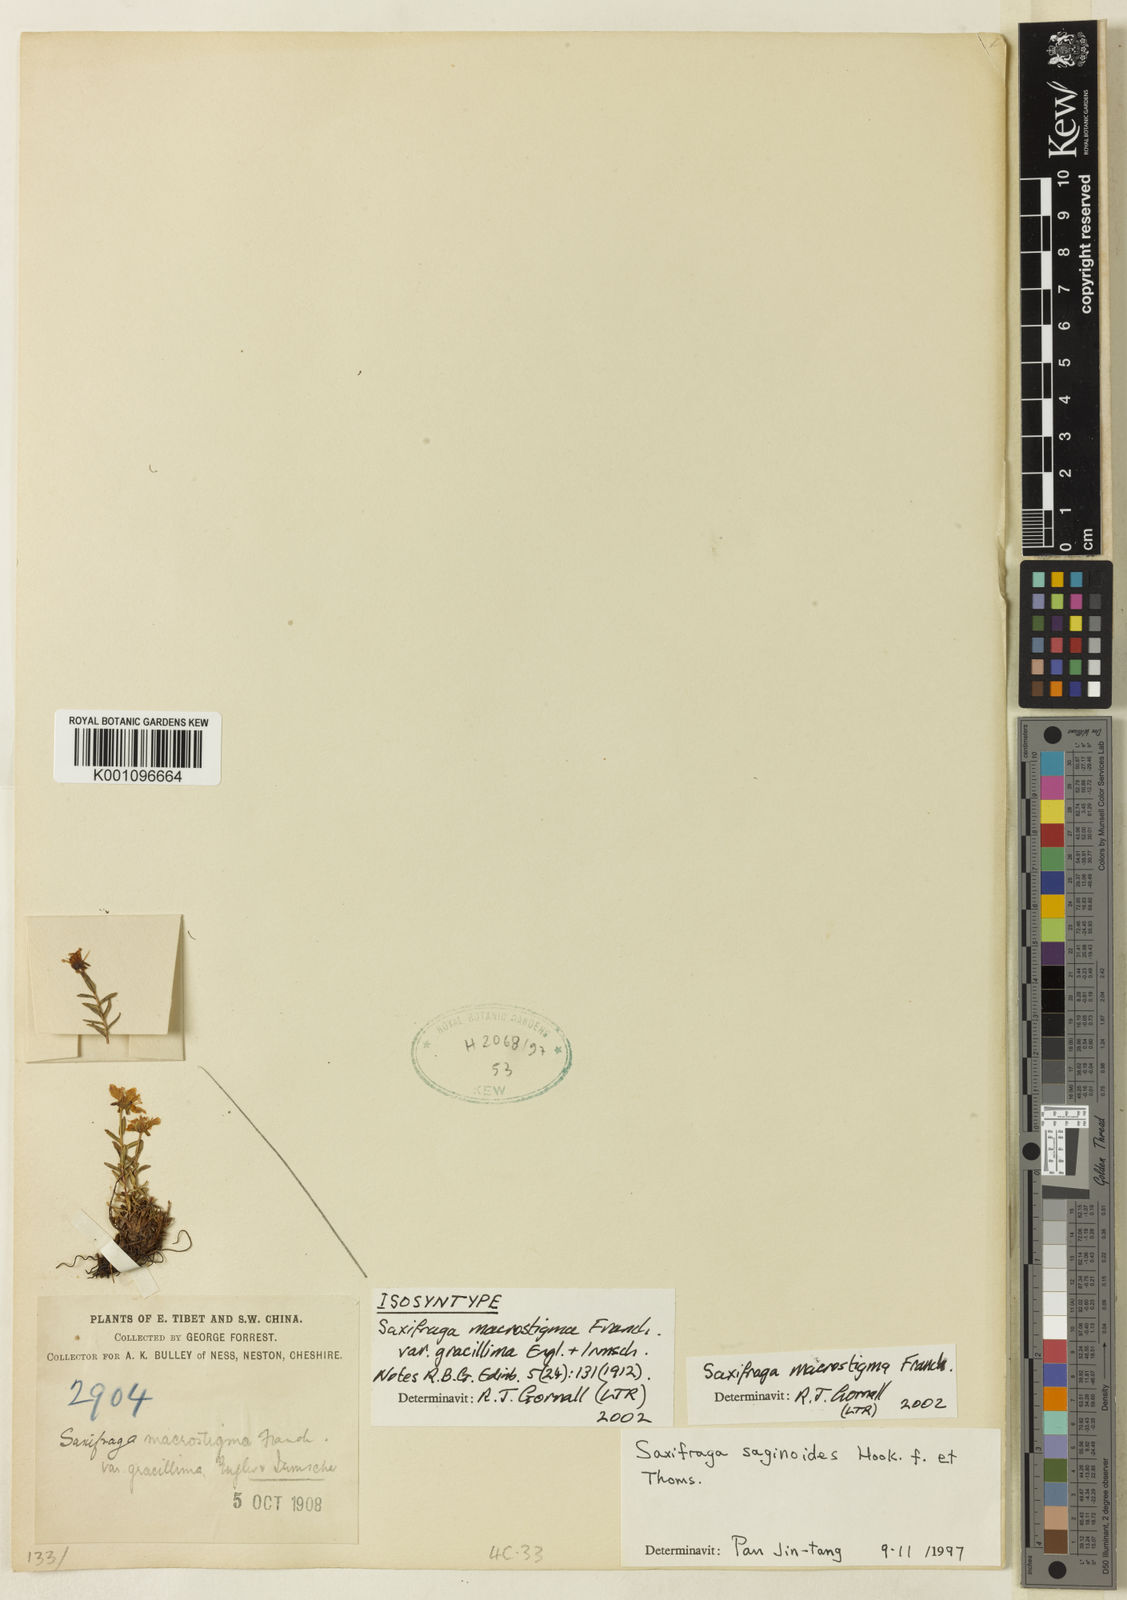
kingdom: Plantae
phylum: Tracheophyta
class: Magnoliopsida
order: Saxifragales
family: Saxifragaceae
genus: Saxifraga
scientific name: Saxifraga aristulata
